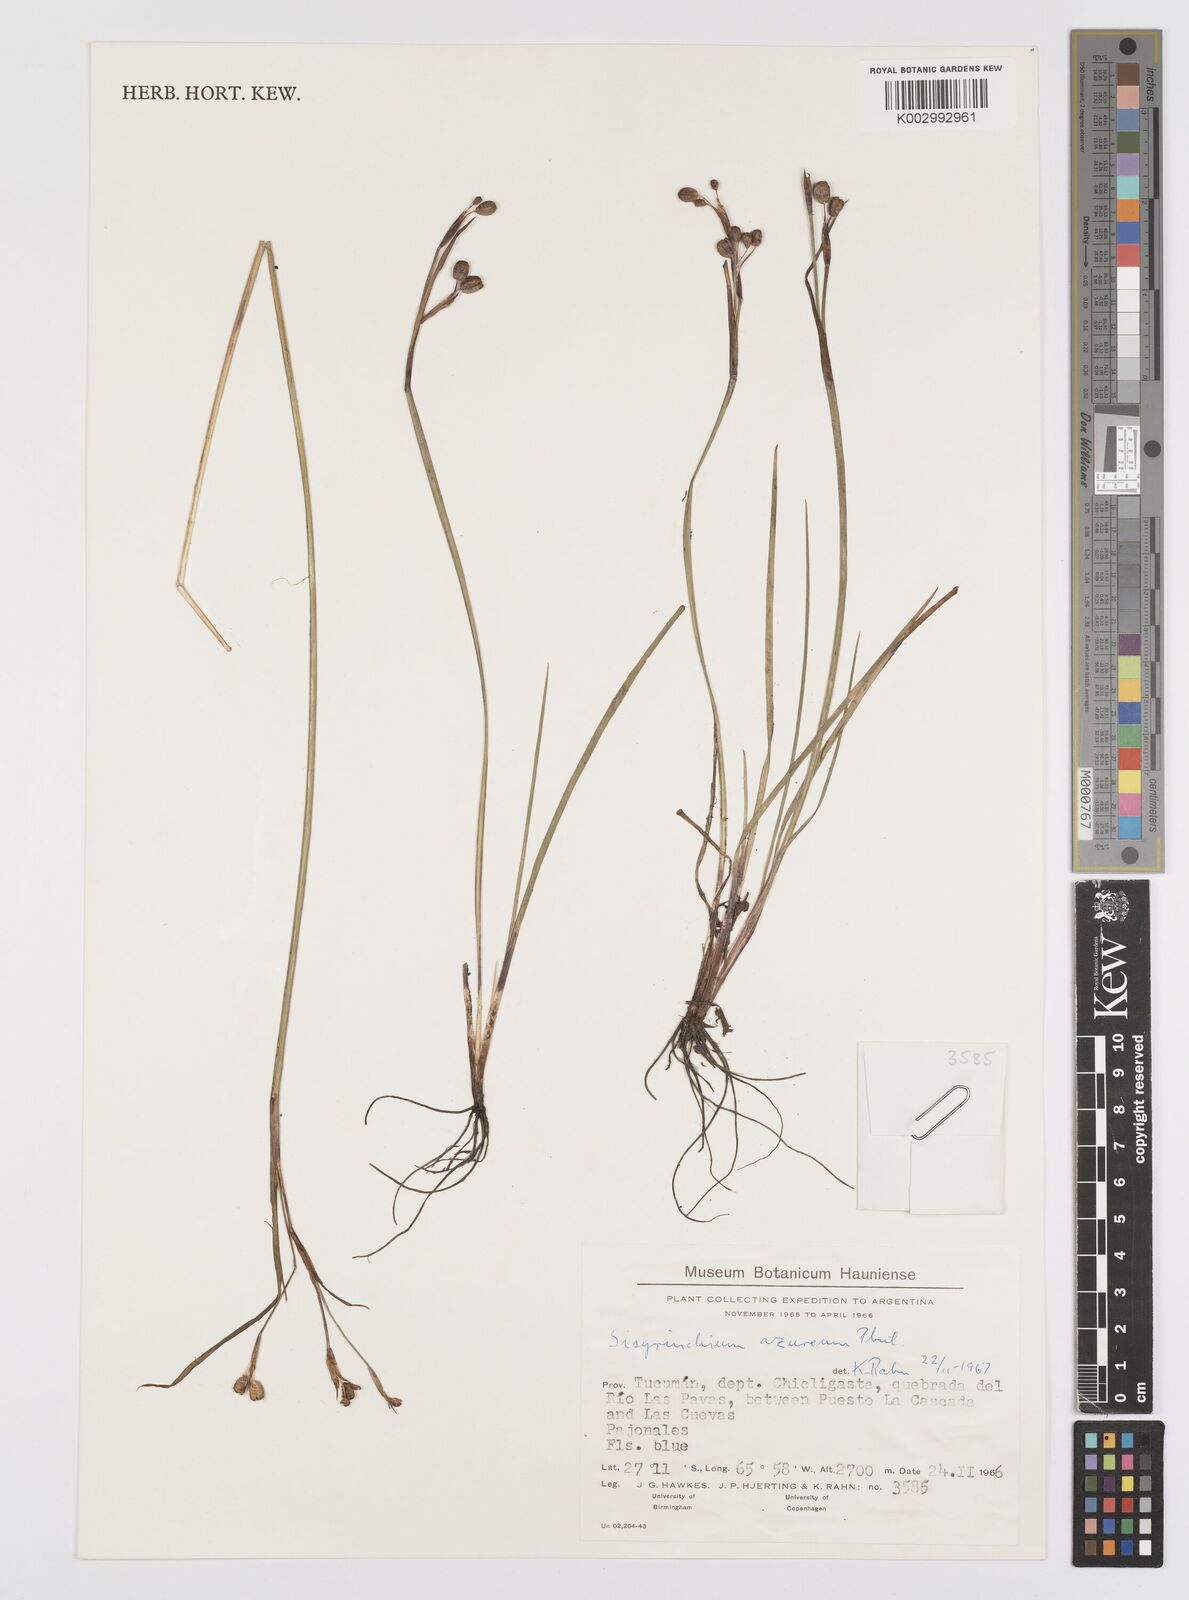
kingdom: Plantae
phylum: Tracheophyta
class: Liliopsida
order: Asparagales
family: Iridaceae
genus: Sisyrinchium
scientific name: Sisyrinchium azureum
